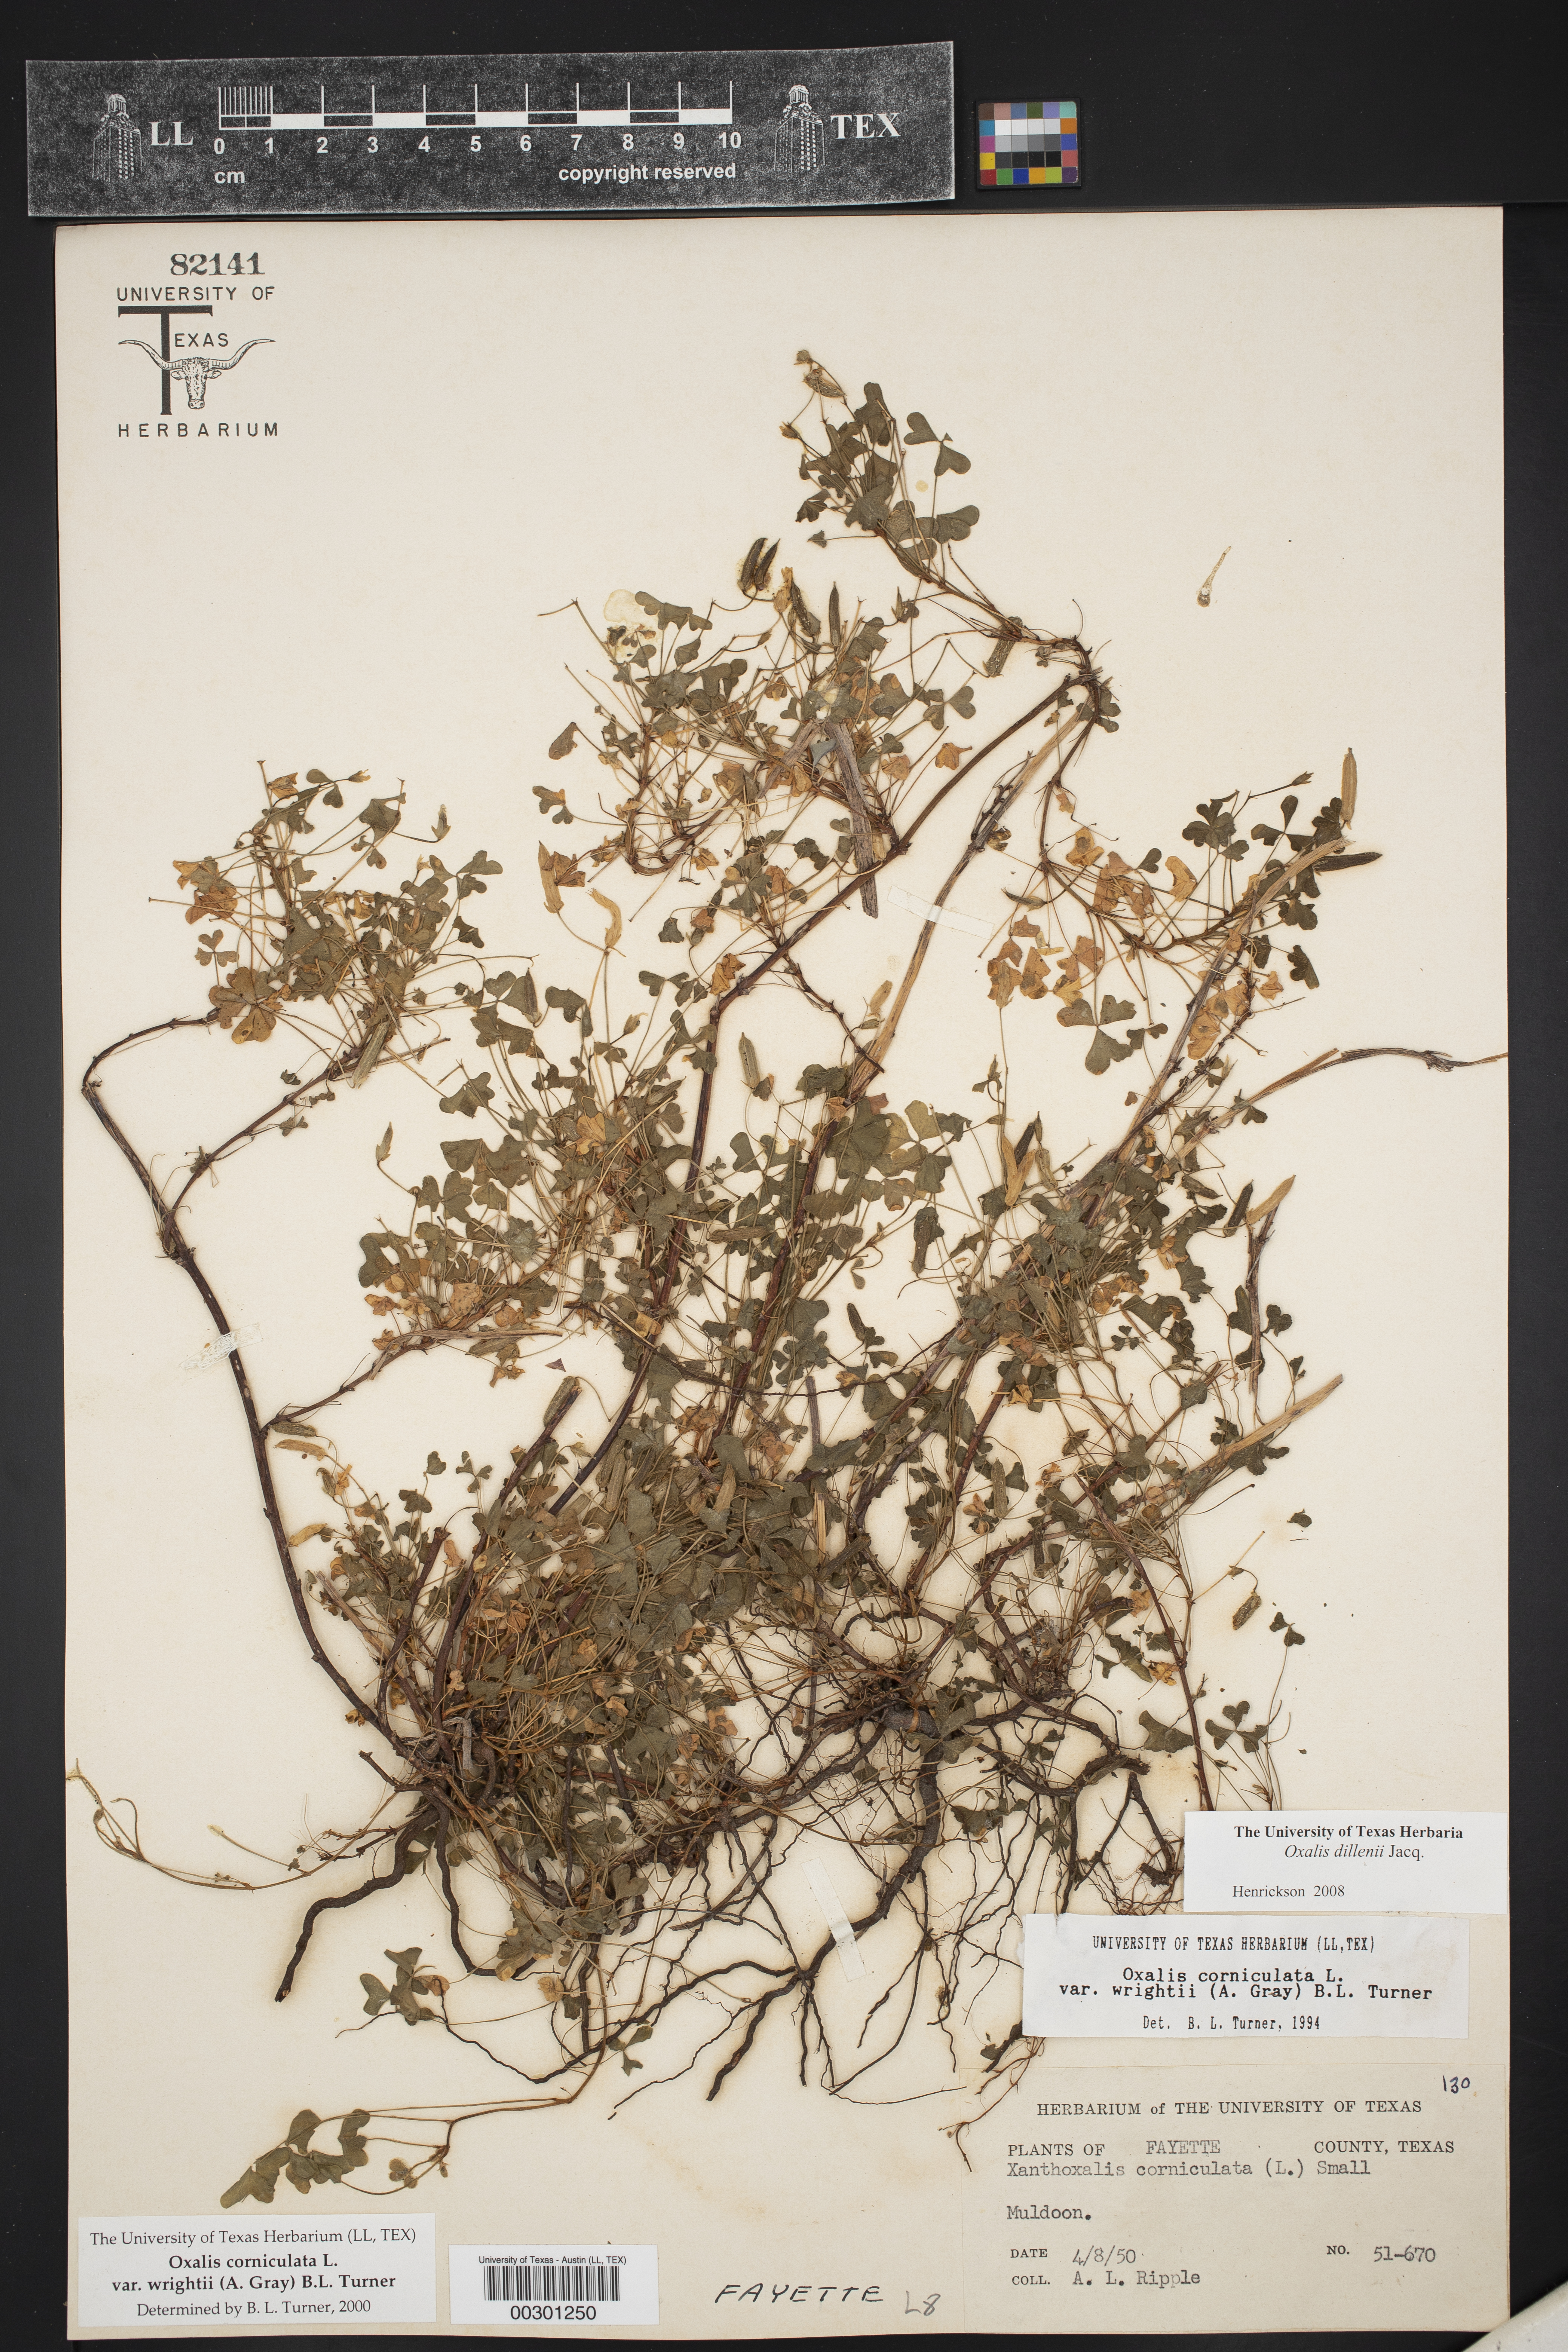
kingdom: Plantae
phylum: Tracheophyta
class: Magnoliopsida
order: Oxalidales
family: Oxalidaceae
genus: Oxalis
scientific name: Oxalis dillenii
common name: Sussex yellow-sorrel
